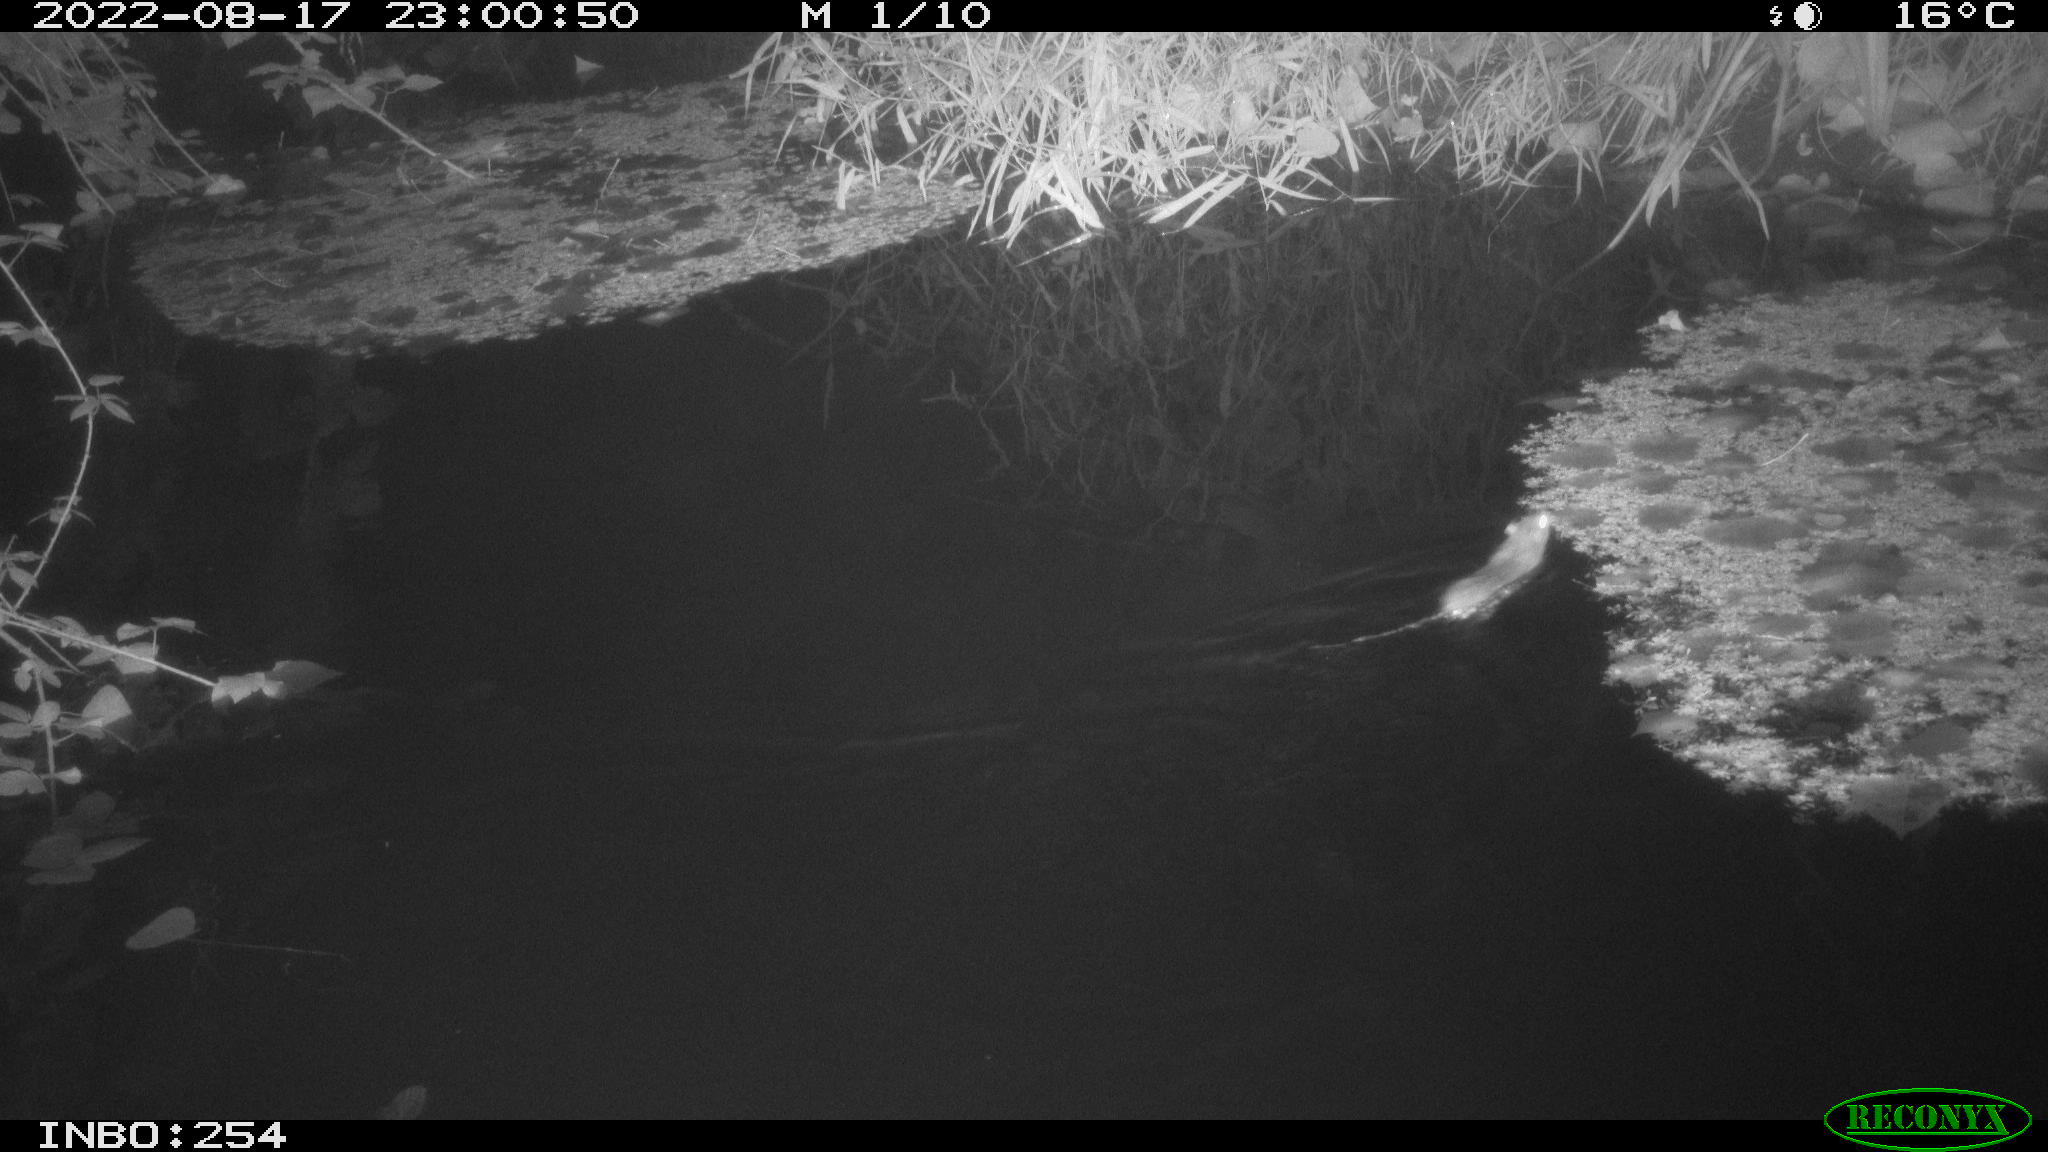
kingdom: Animalia
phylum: Chordata
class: Mammalia
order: Rodentia
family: Muridae
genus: Rattus
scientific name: Rattus norvegicus
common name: Brown rat
